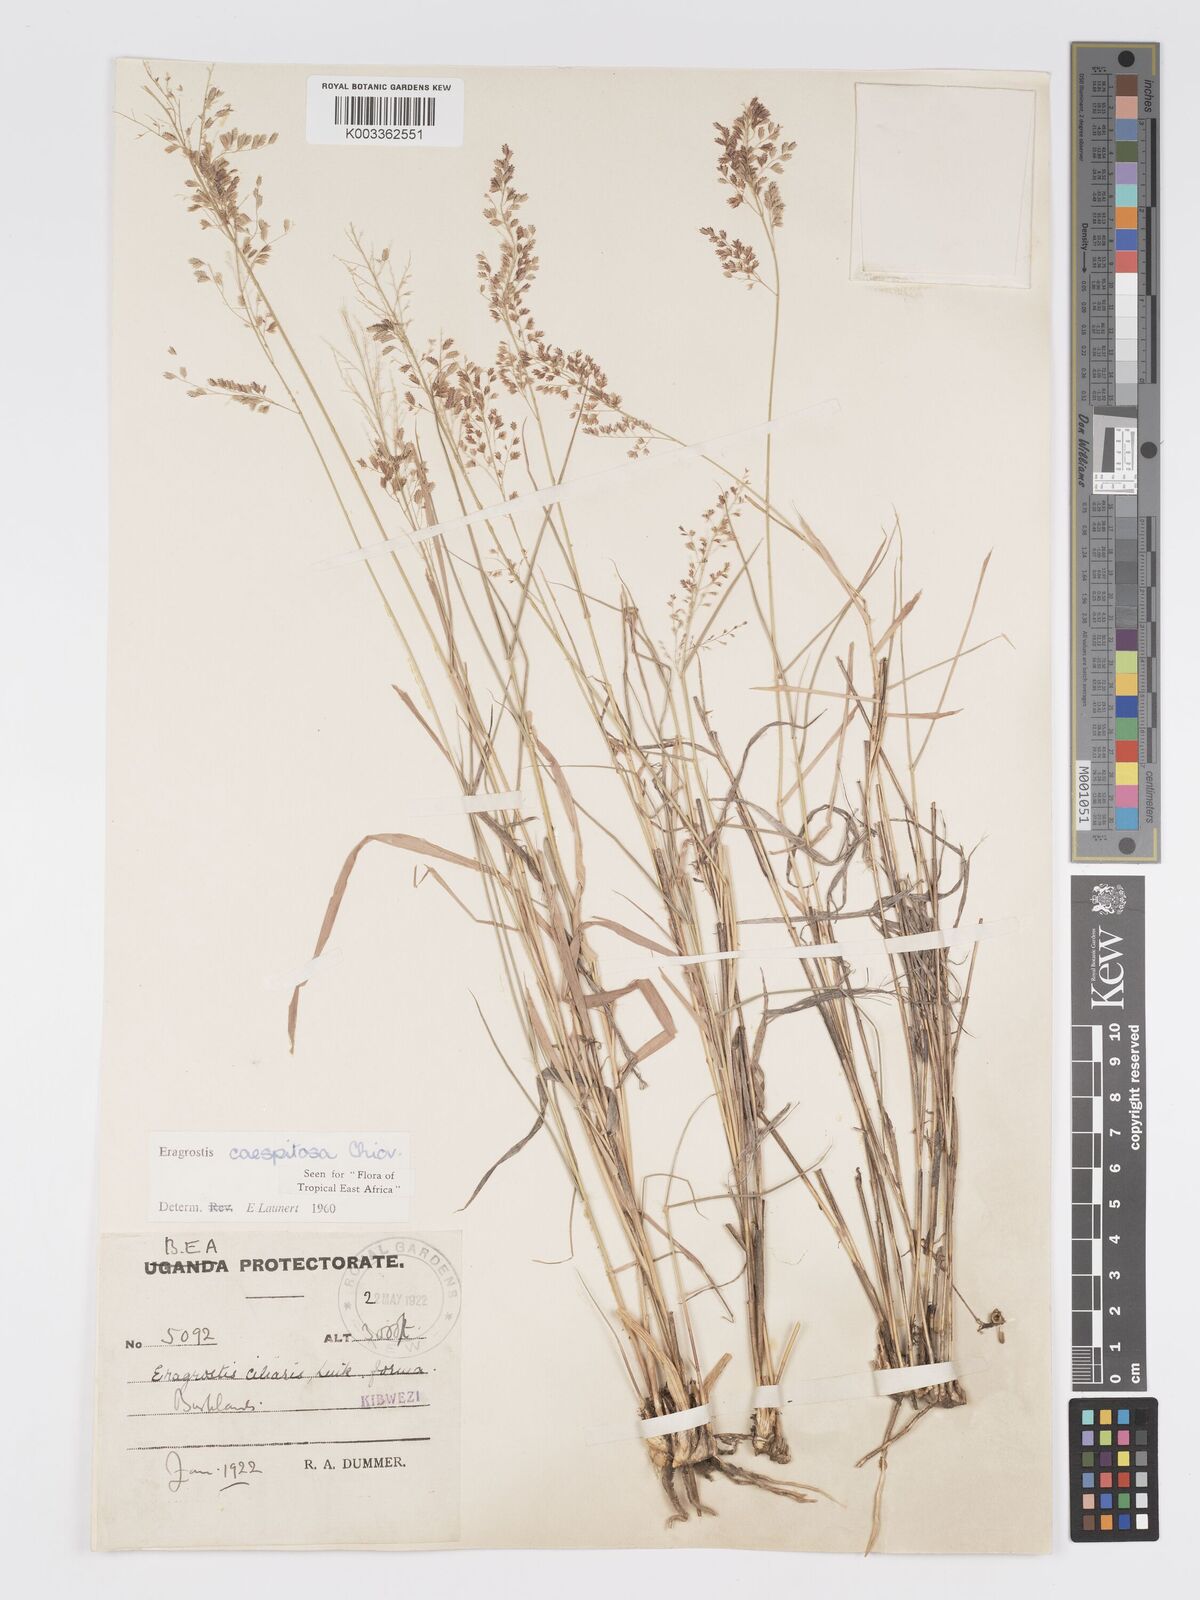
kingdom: Plantae
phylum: Tracheophyta
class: Liliopsida
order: Poales
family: Poaceae
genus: Eragrostis
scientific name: Eragrostis caespitosa
